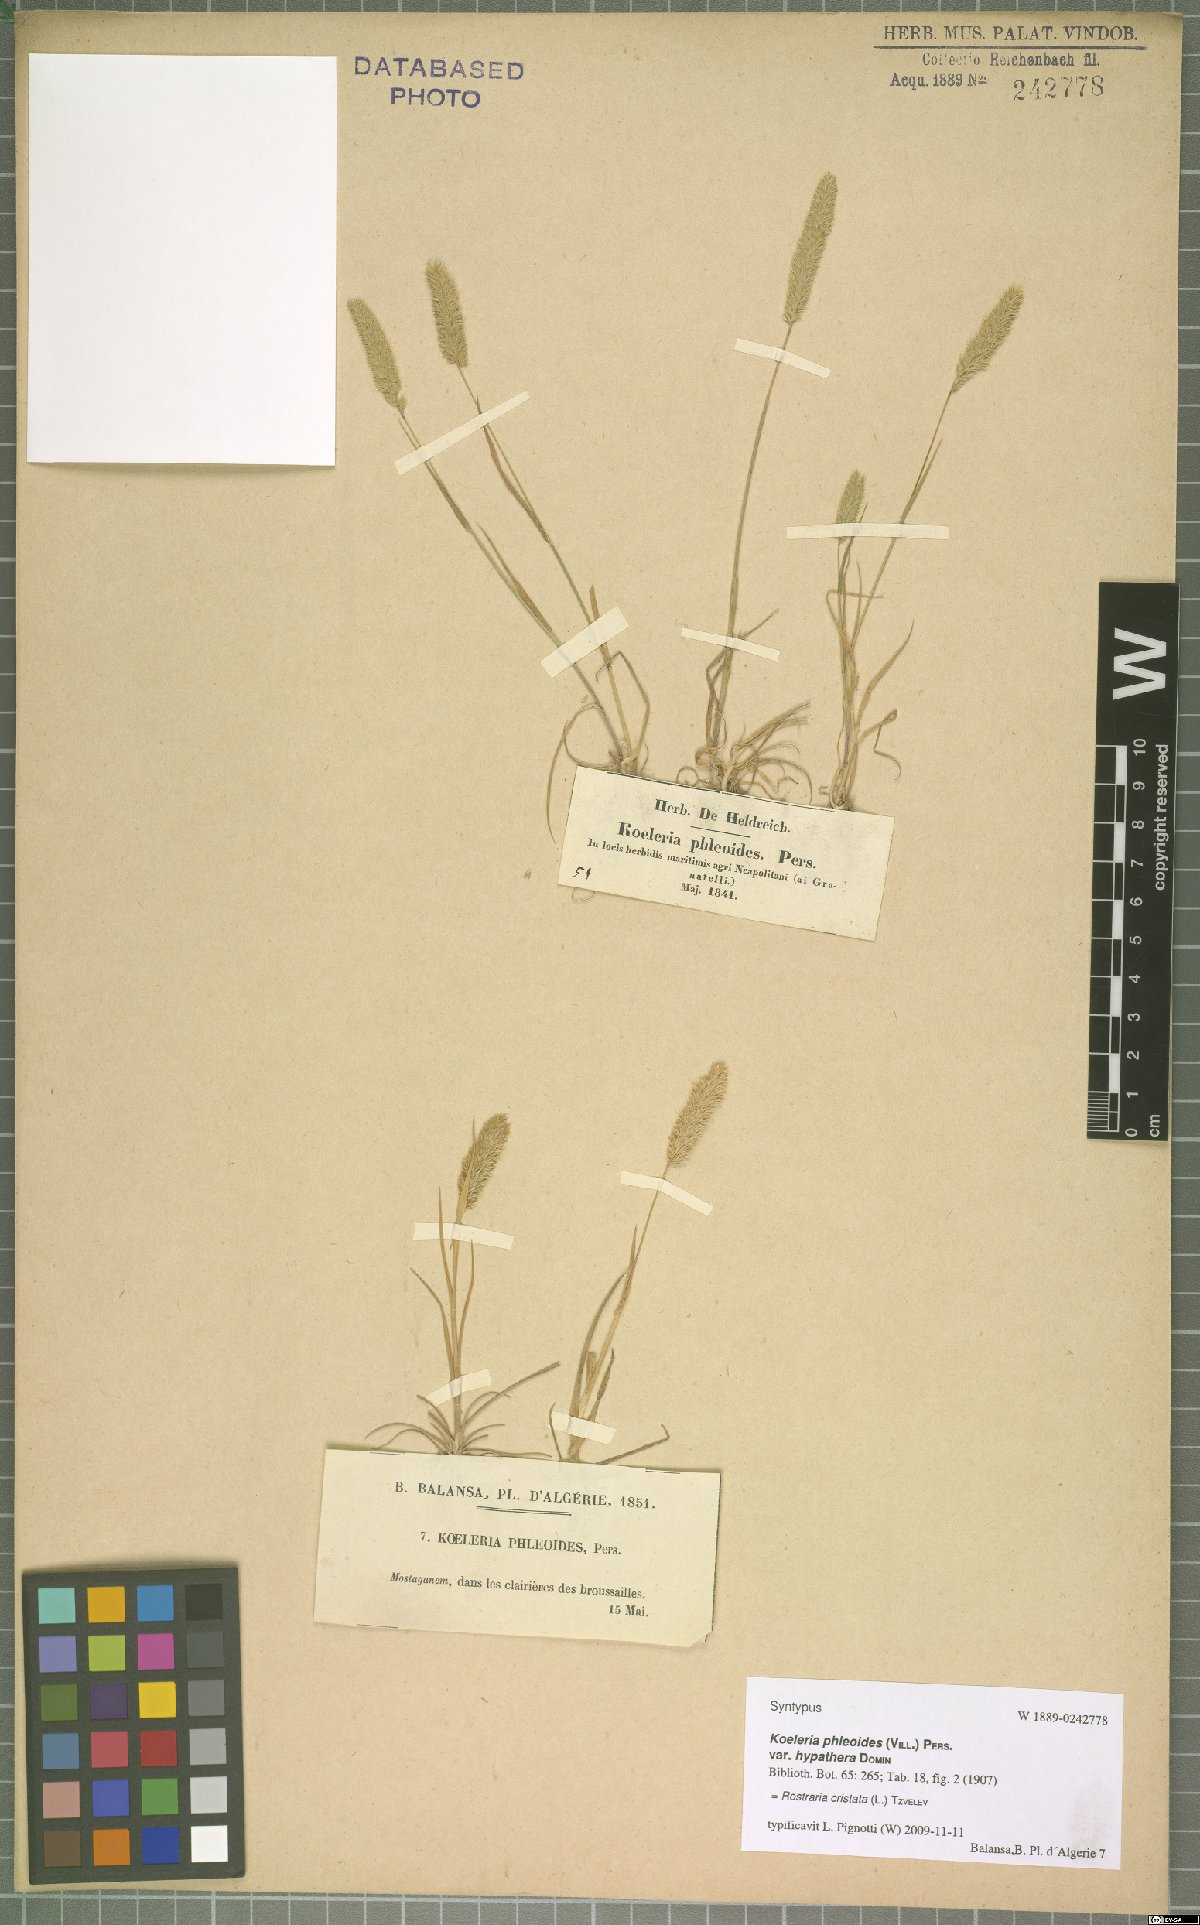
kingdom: Plantae
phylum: Tracheophyta
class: Liliopsida
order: Poales
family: Poaceae
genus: Rostraria
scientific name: Rostraria cristata
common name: Mediterranean hair-grass
